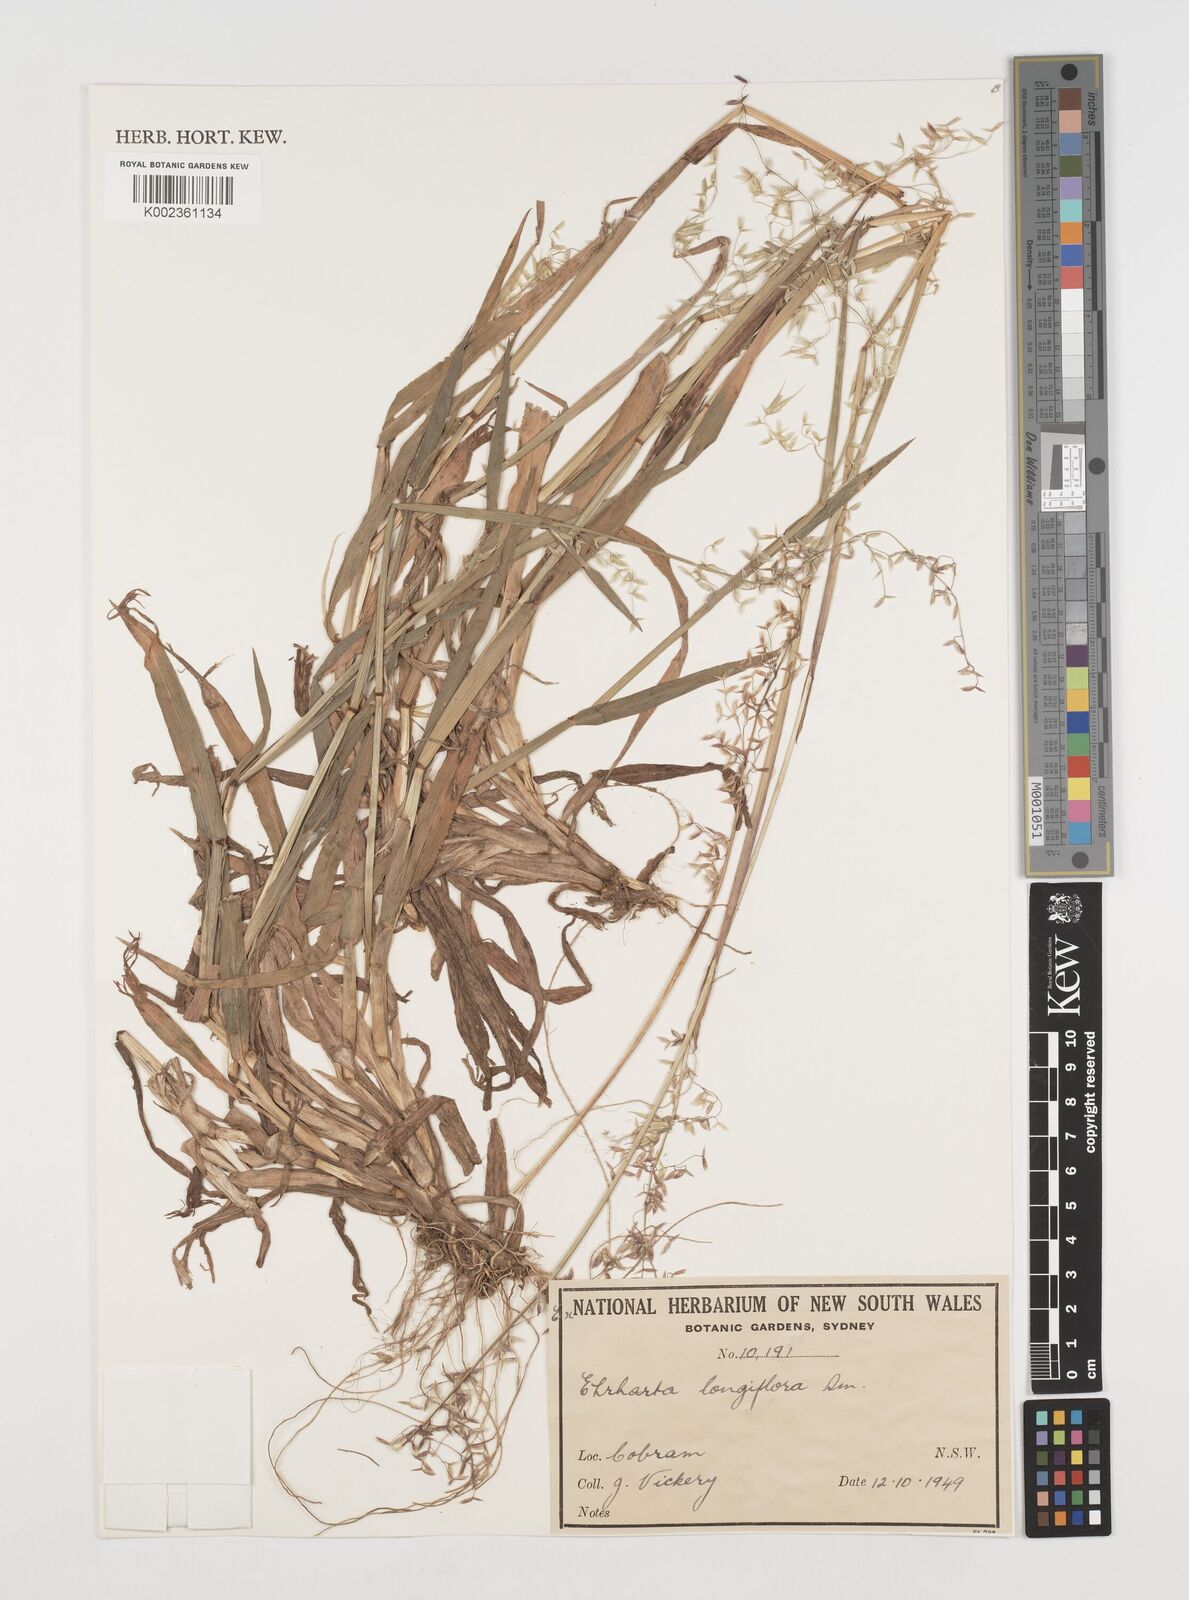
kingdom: Plantae
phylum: Tracheophyta
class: Liliopsida
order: Poales
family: Poaceae
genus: Ehrharta
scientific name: Ehrharta longiflora
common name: Longflowered veldtgrass
